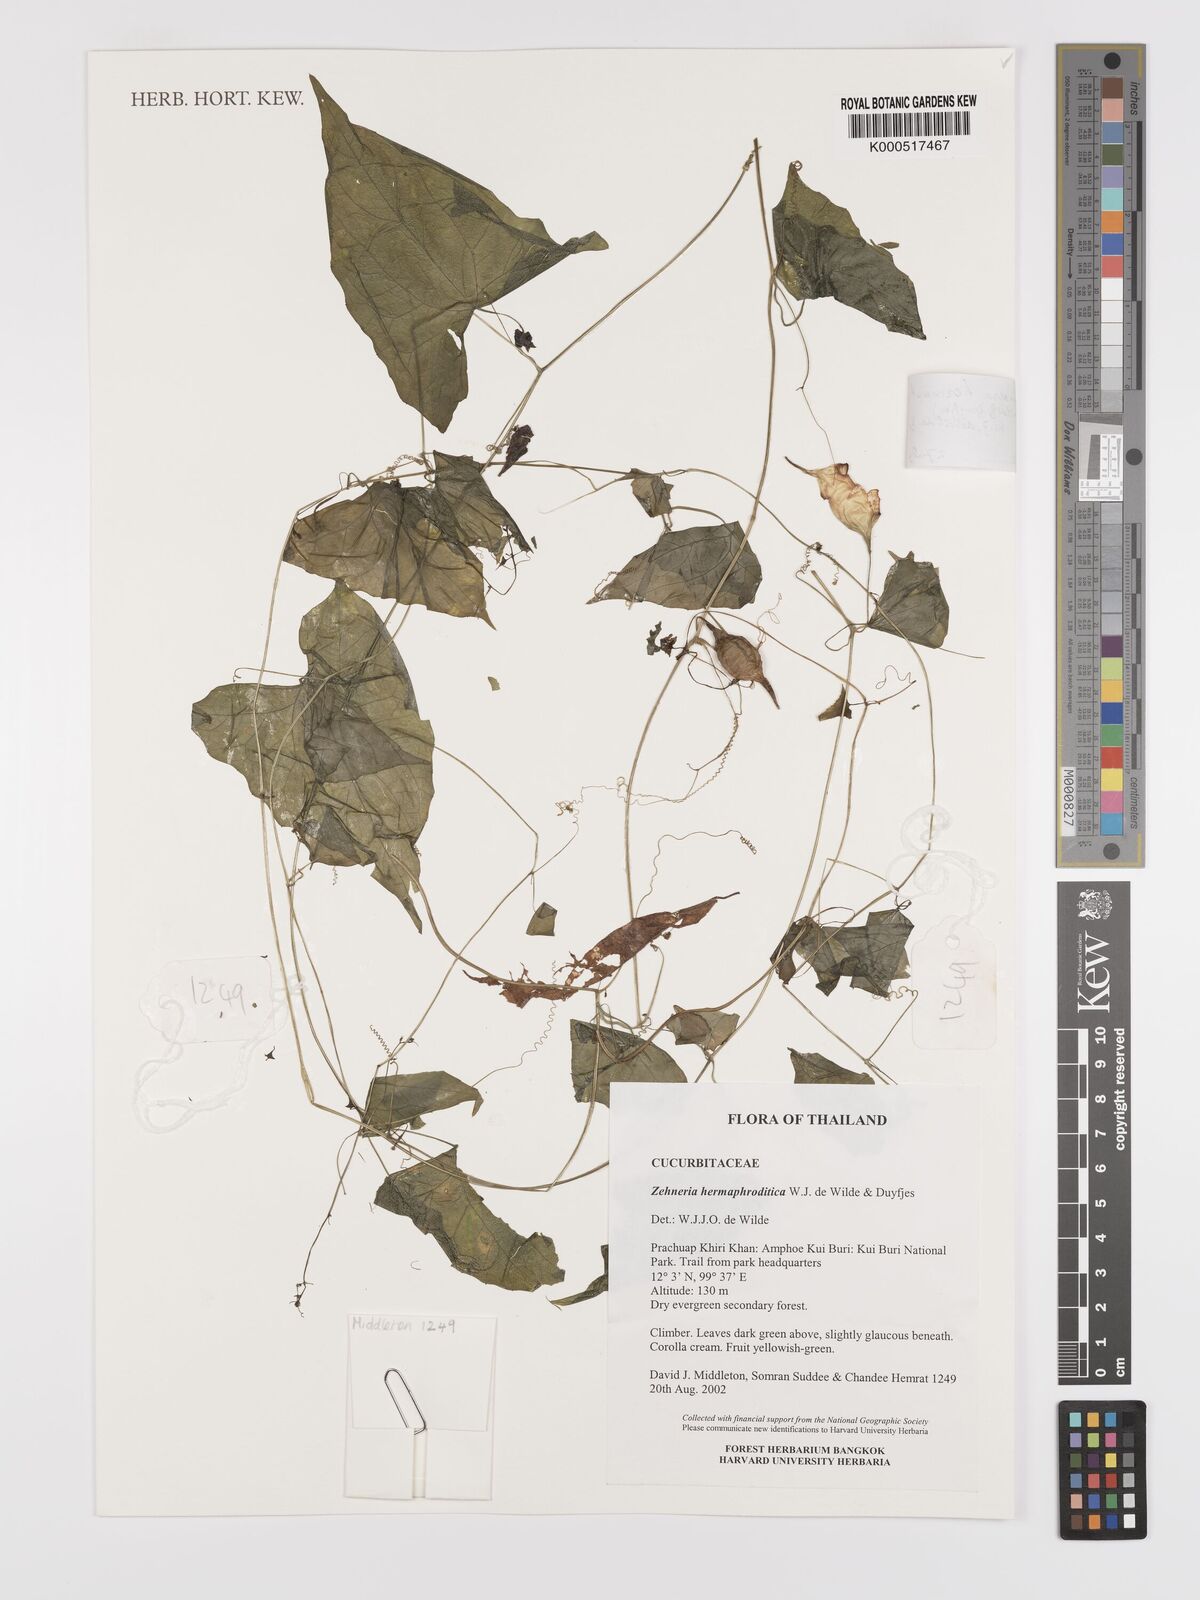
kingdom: Plantae
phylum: Tracheophyta
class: Magnoliopsida
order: Cucurbitales
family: Cucurbitaceae
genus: Zehneria
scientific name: Zehneria hermaphrodita
